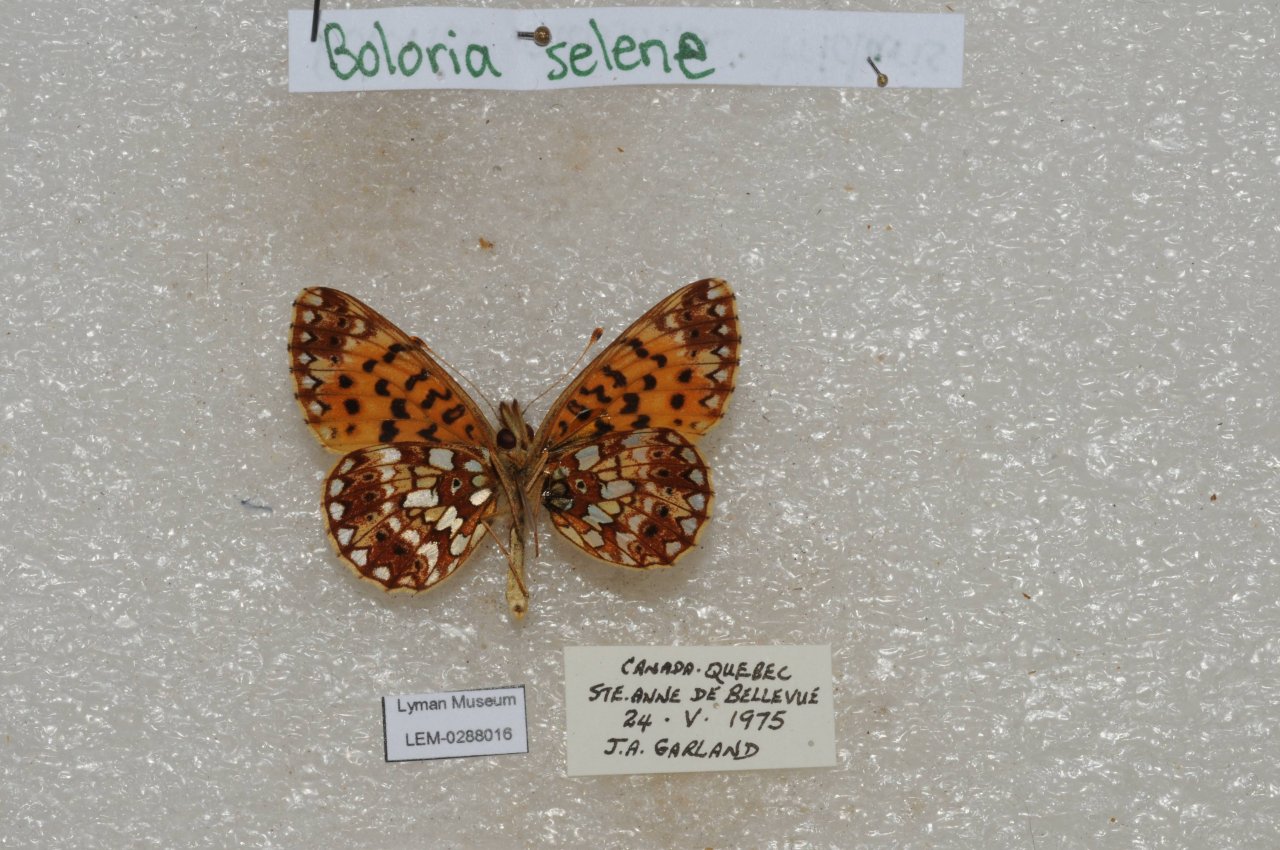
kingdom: Animalia
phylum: Arthropoda
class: Insecta
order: Lepidoptera
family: Nymphalidae
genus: Boloria
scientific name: Boloria selene
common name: Silver-bordered Fritillary
